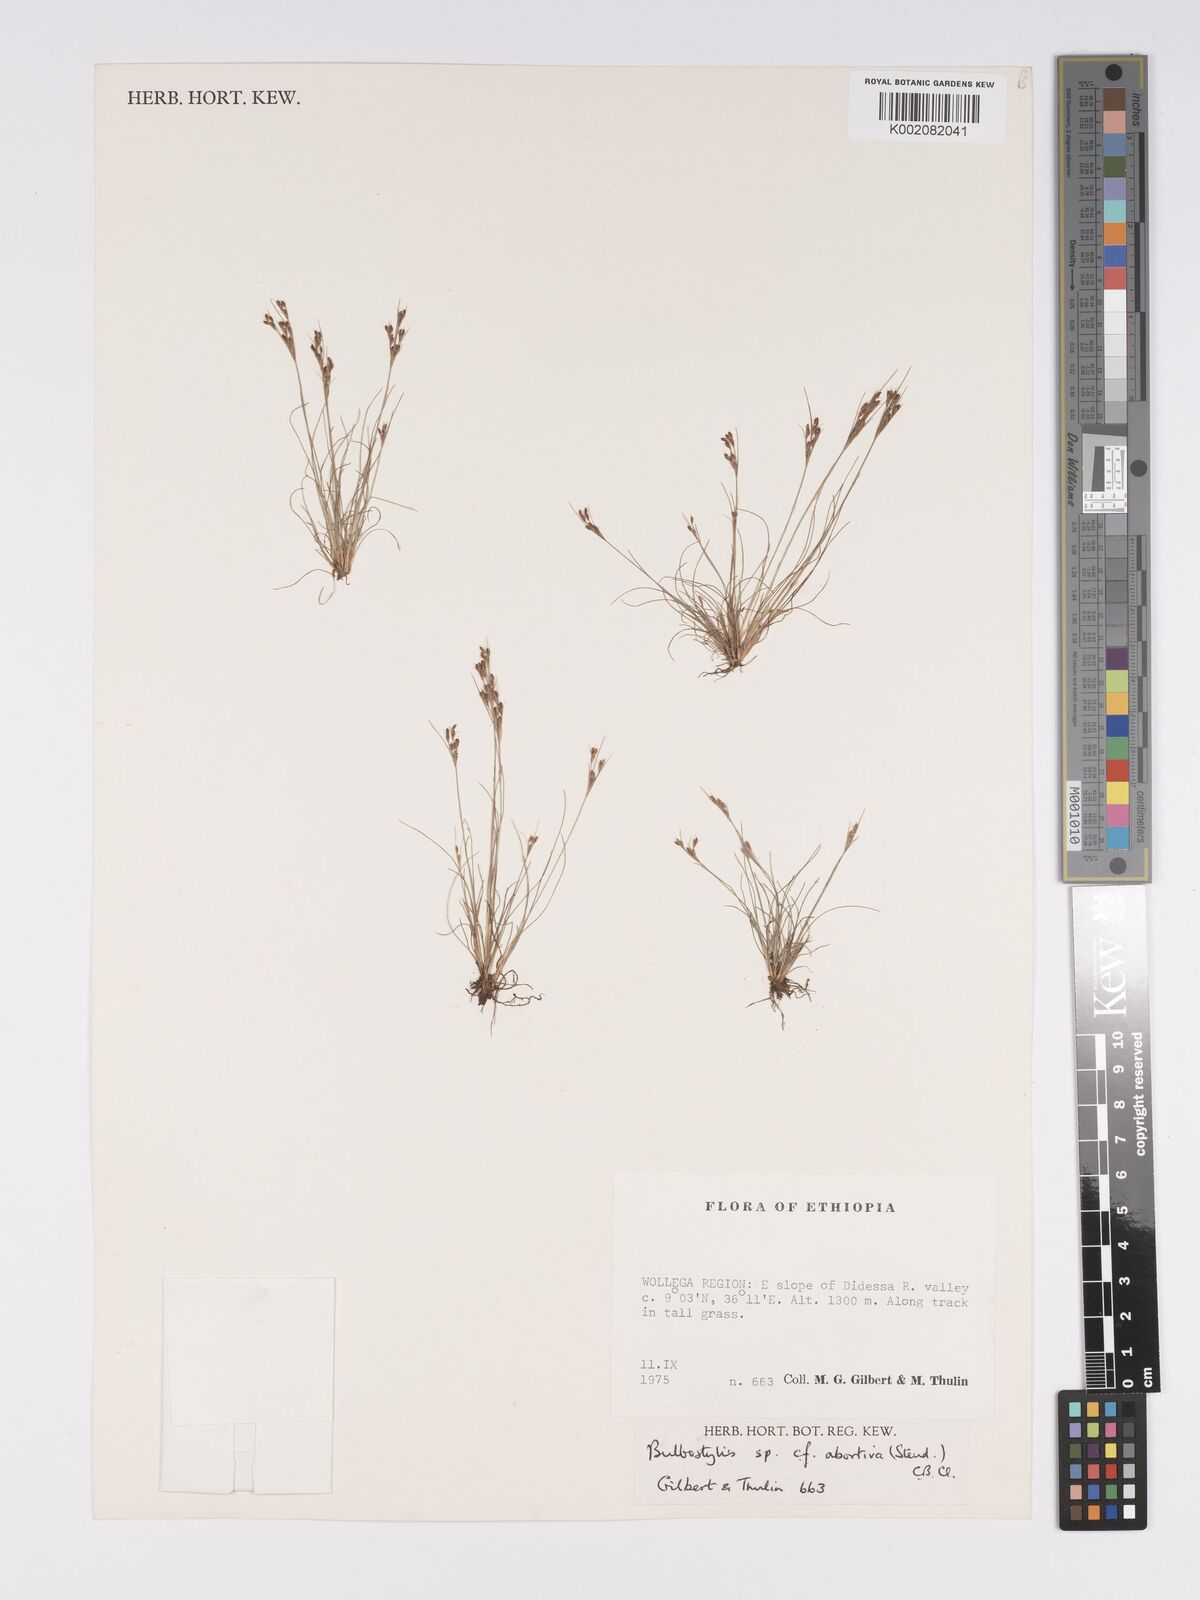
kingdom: Plantae
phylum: Tracheophyta
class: Liliopsida
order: Poales
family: Cyperaceae
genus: Bulbostylis
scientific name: Bulbostylis abortiva
